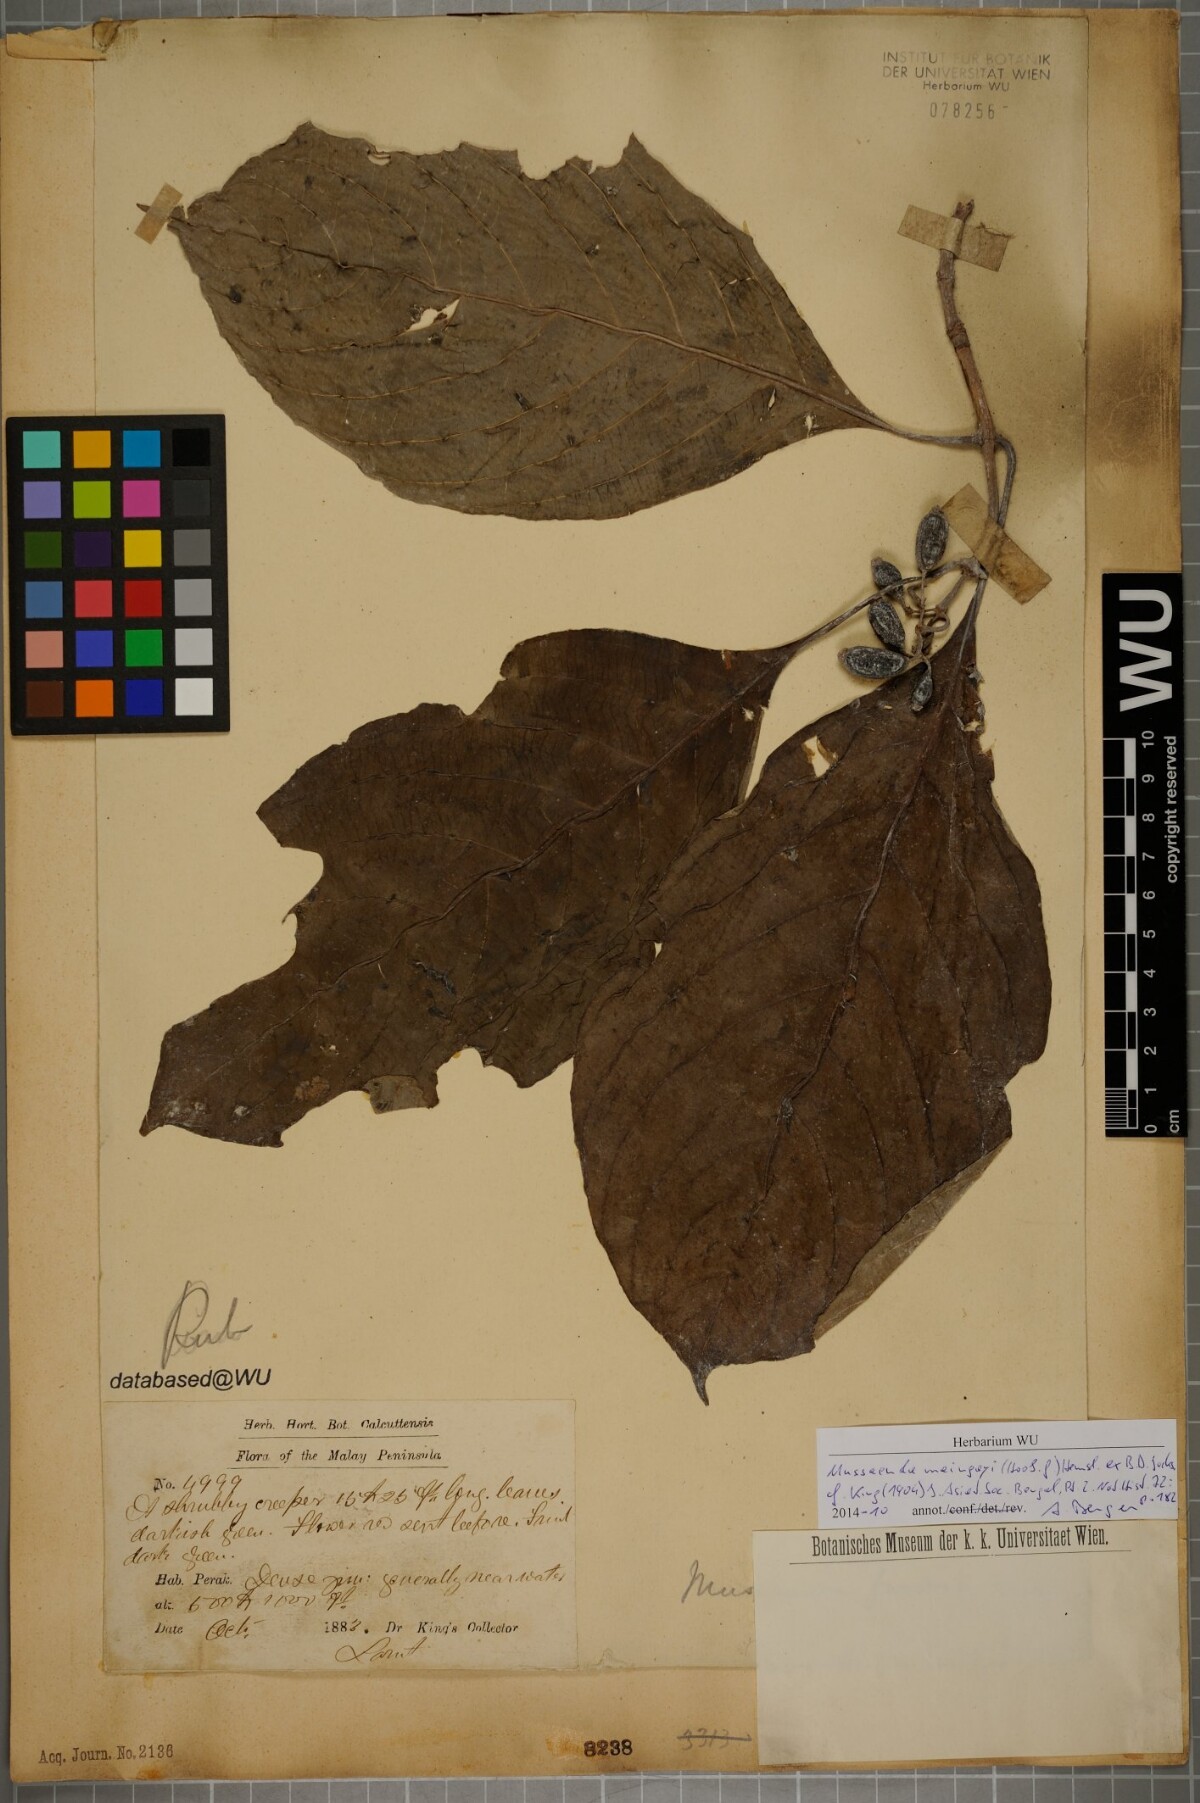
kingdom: Plantae
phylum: Tracheophyta
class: Magnoliopsida
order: Gentianales
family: Rubiaceae
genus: Mussaenda
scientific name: Mussaenda maingayi
